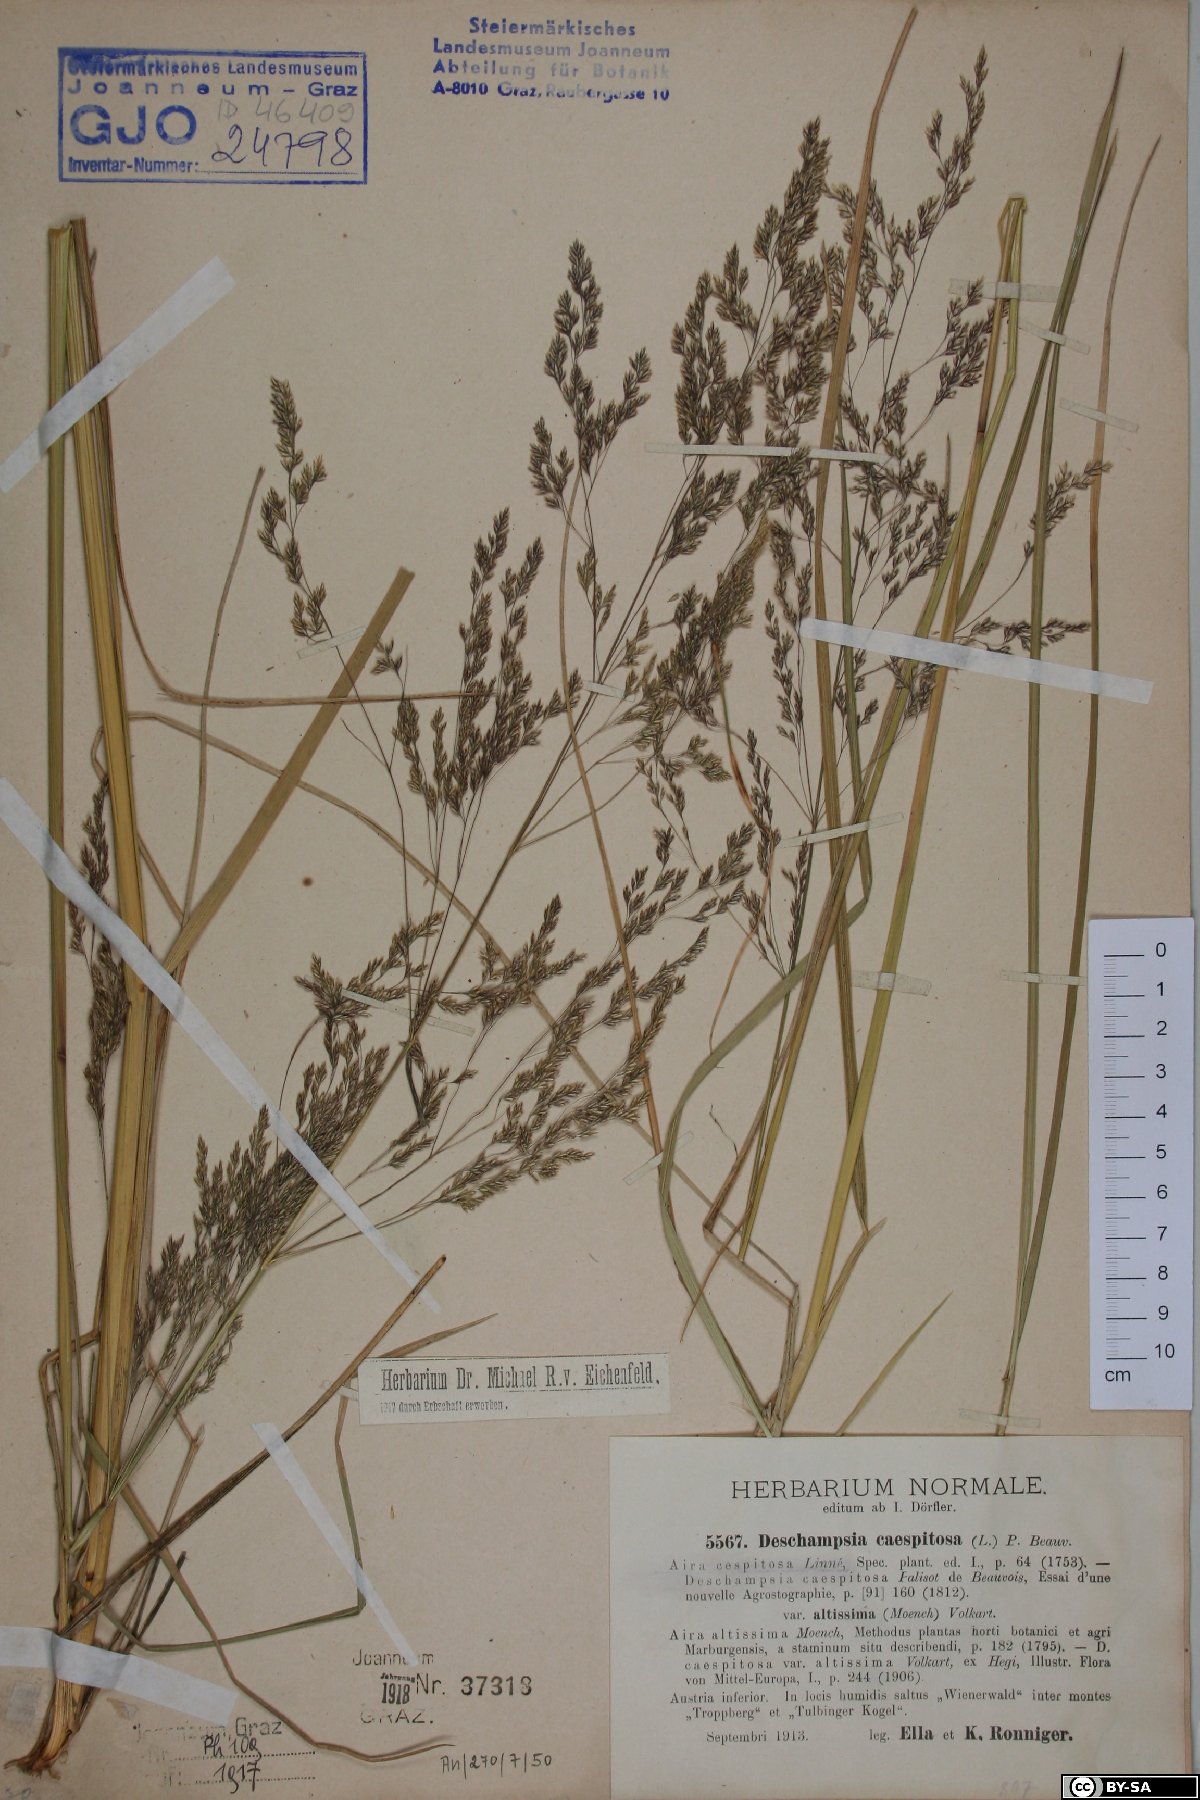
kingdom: Plantae
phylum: Tracheophyta
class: Liliopsida
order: Poales
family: Poaceae
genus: Deschampsia
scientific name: Deschampsia cespitosa
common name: Tufted hair-grass
